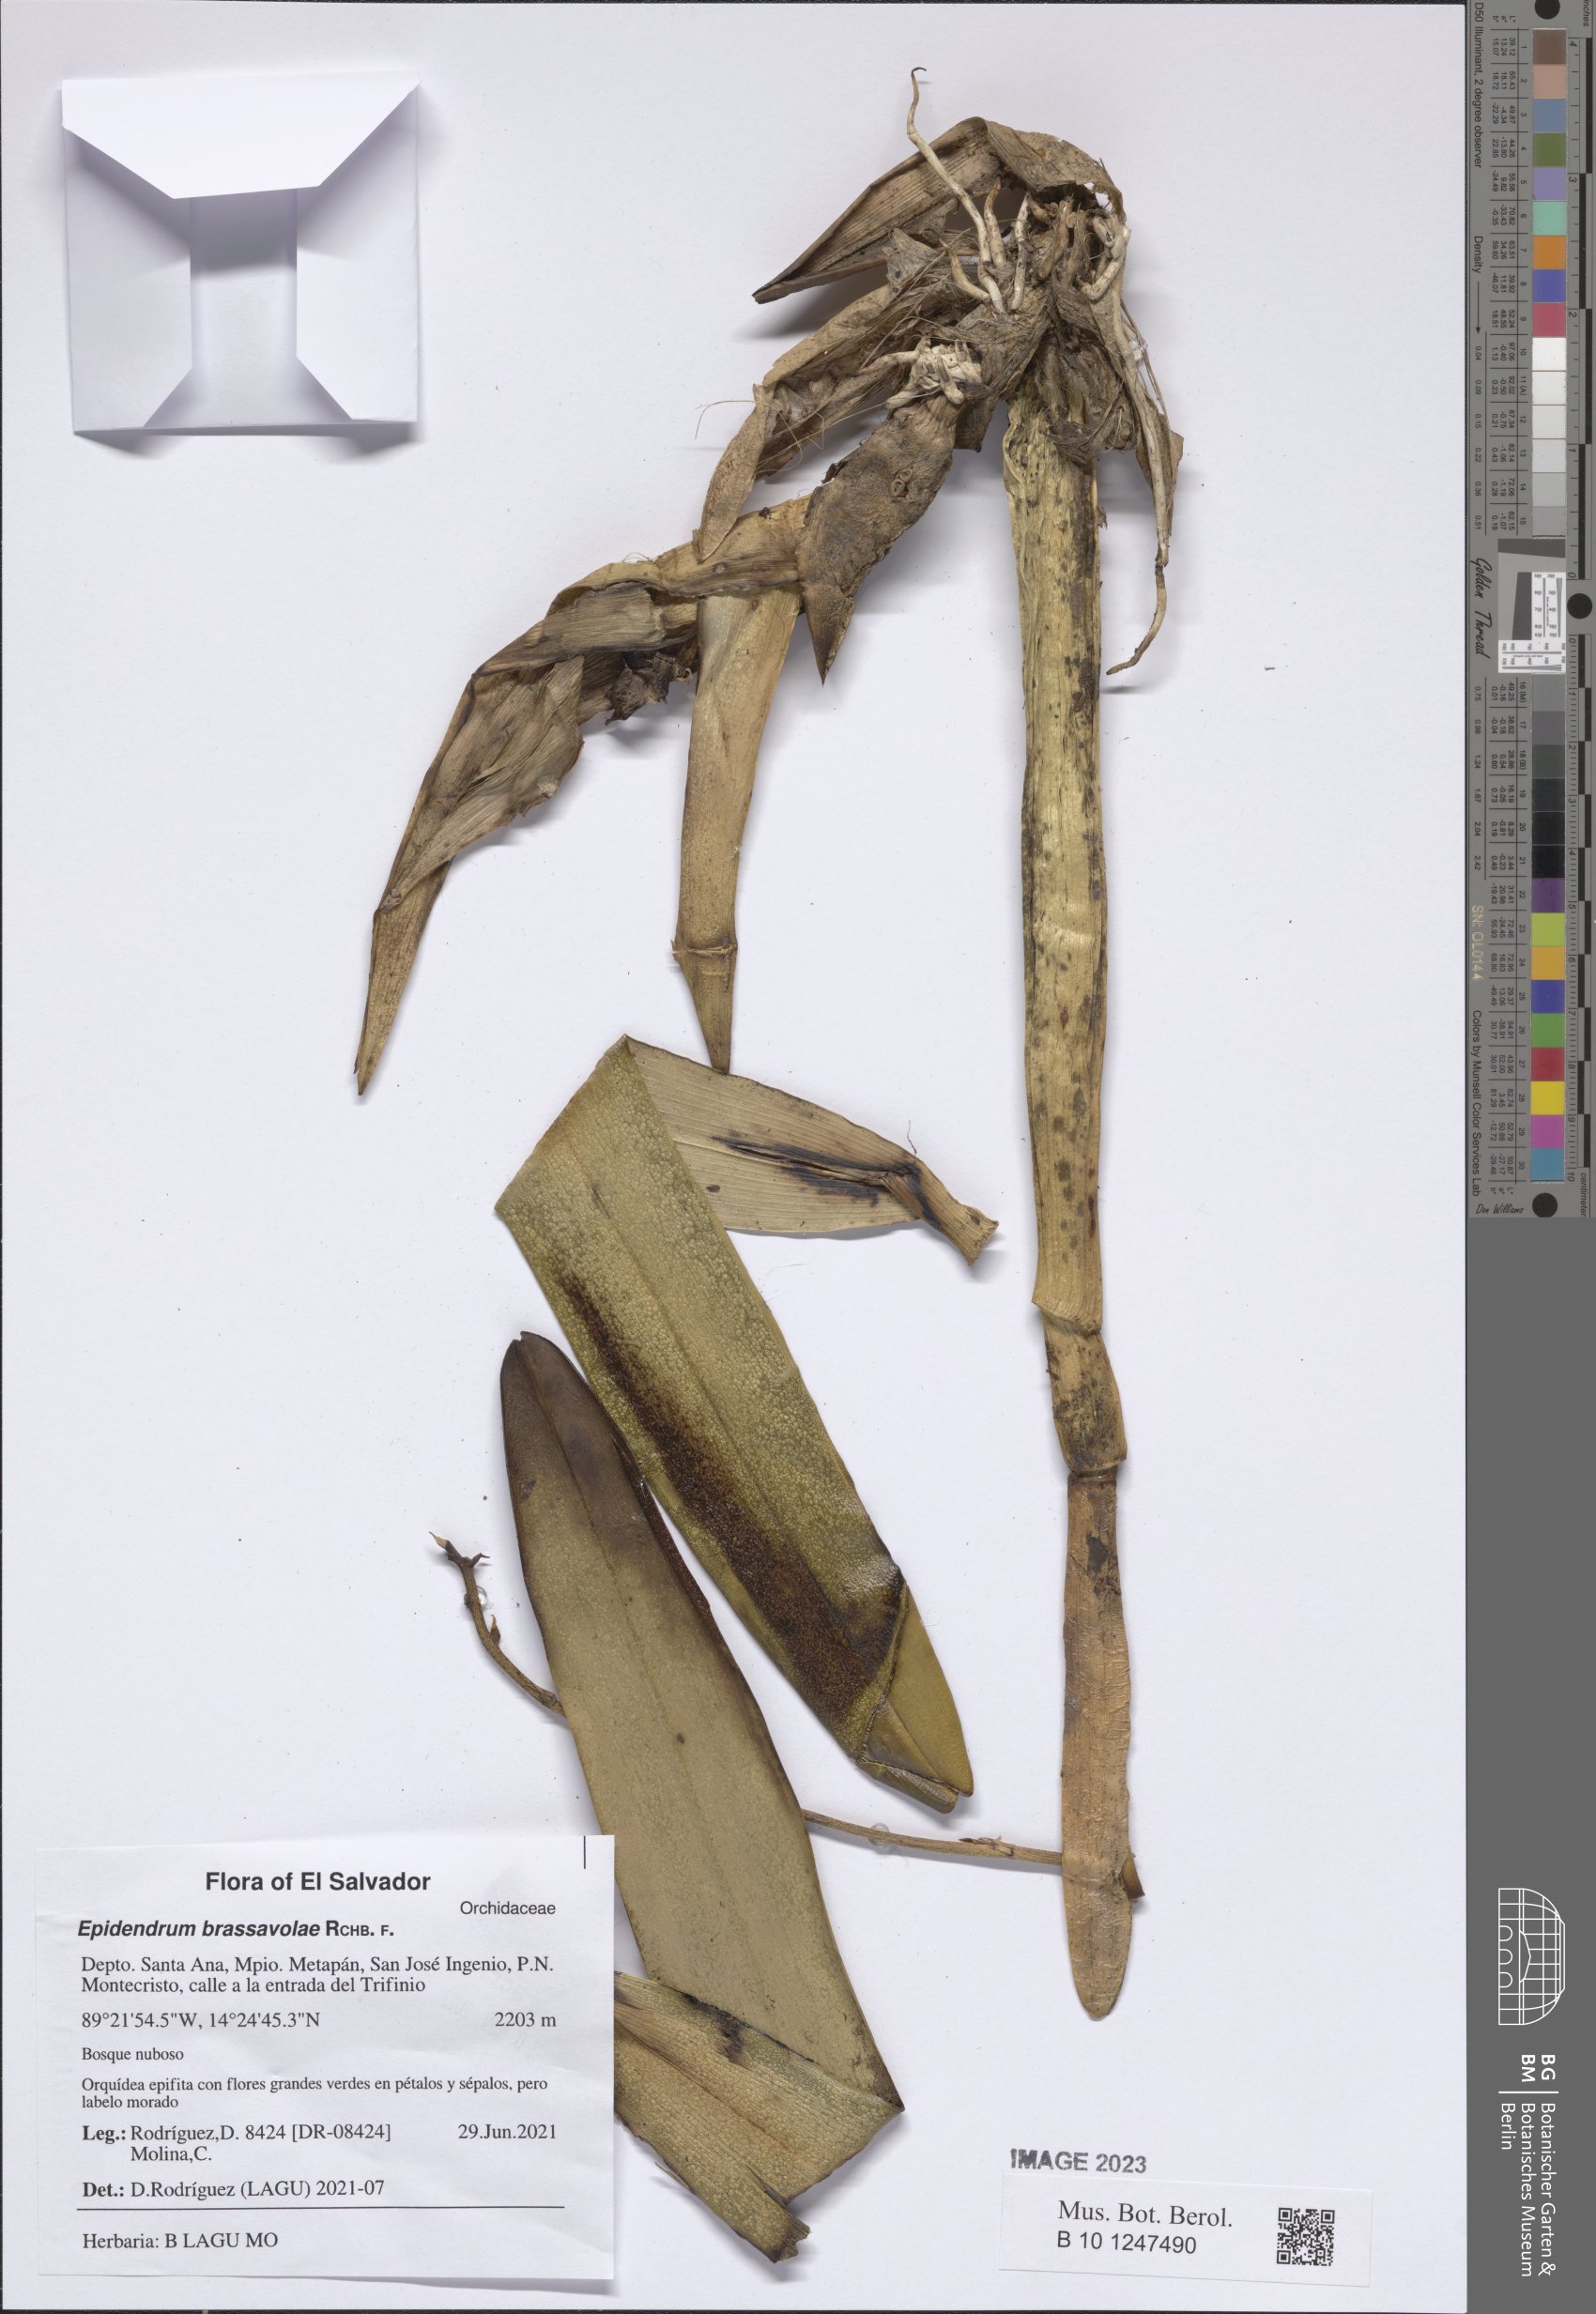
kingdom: Plantae
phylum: Tracheophyta
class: Liliopsida
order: Asparagales
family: Orchidaceae
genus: Prosthechea
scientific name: Prosthechea brassavolae
